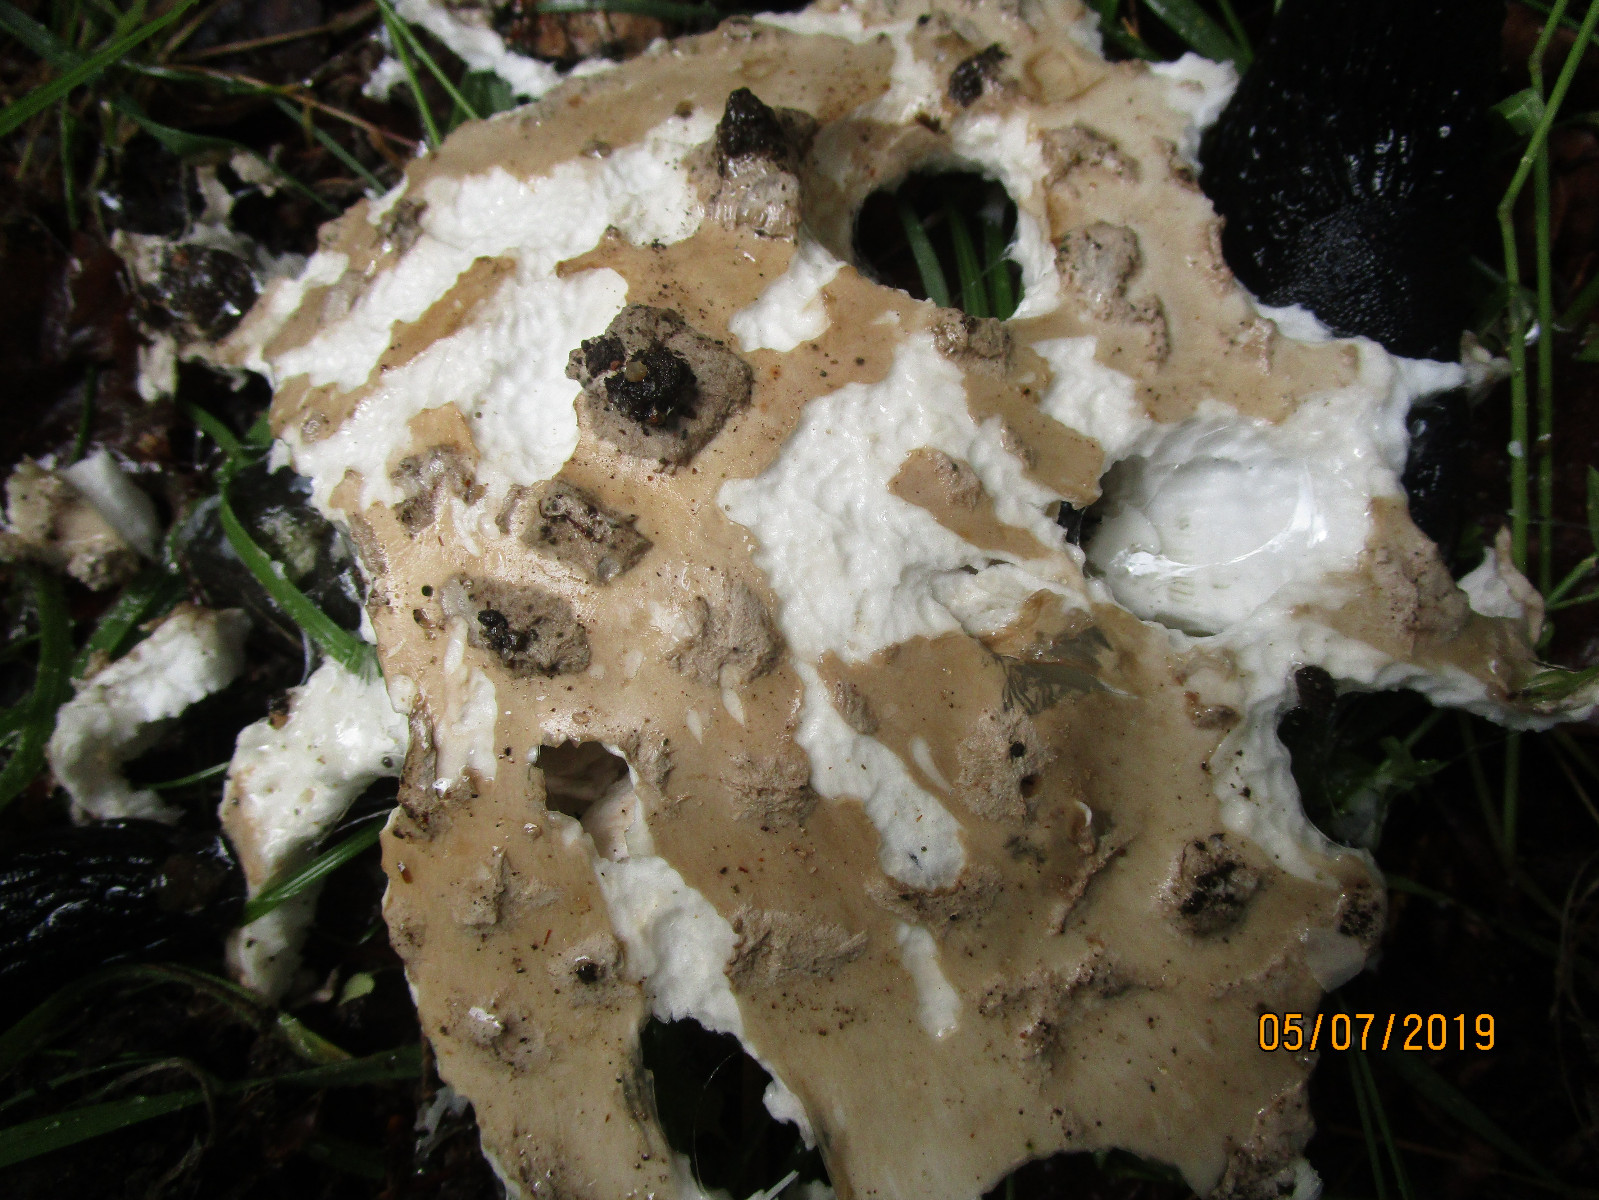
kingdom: Fungi
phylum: Basidiomycota
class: Agaricomycetes
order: Agaricales
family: Amanitaceae
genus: Amanita
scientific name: Amanita
